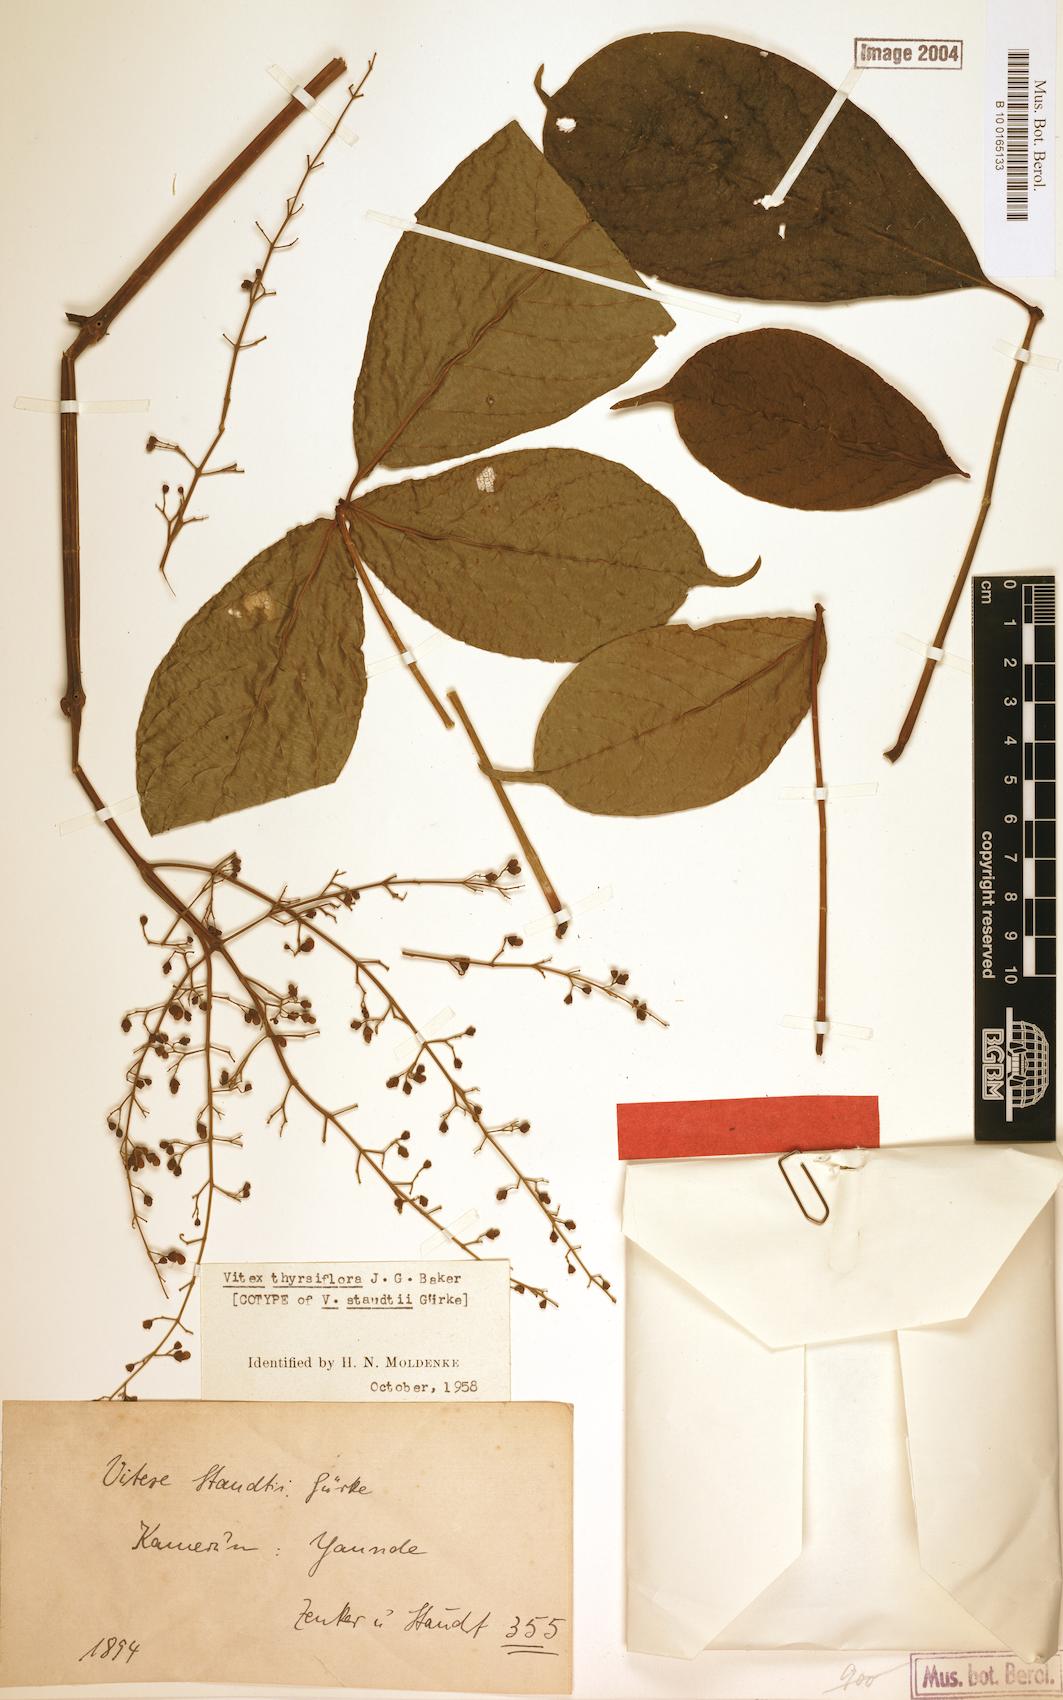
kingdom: Plantae
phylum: Tracheophyta
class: Magnoliopsida
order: Lamiales
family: Lamiaceae
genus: Vitex
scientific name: Vitex thyrsiflora
